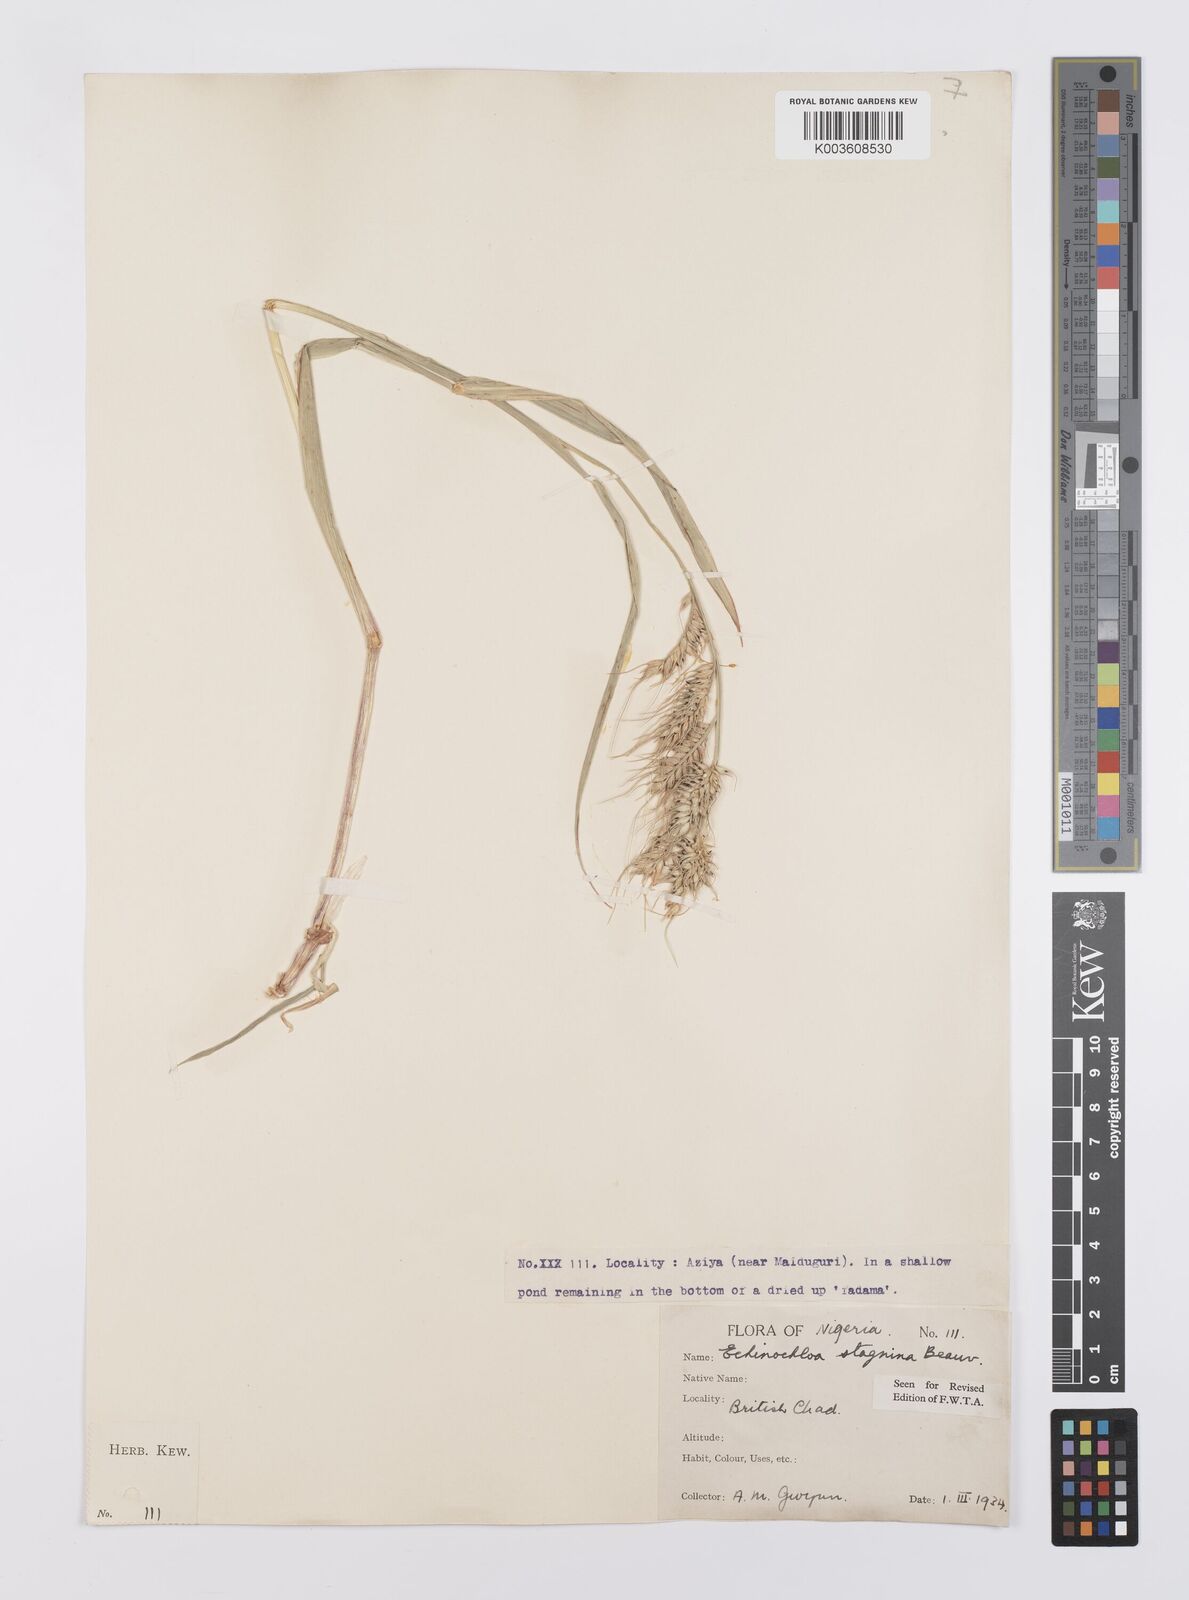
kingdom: Plantae
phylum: Tracheophyta
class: Liliopsida
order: Poales
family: Poaceae
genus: Echinochloa
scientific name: Echinochloa stagnina
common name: Burgu grass
